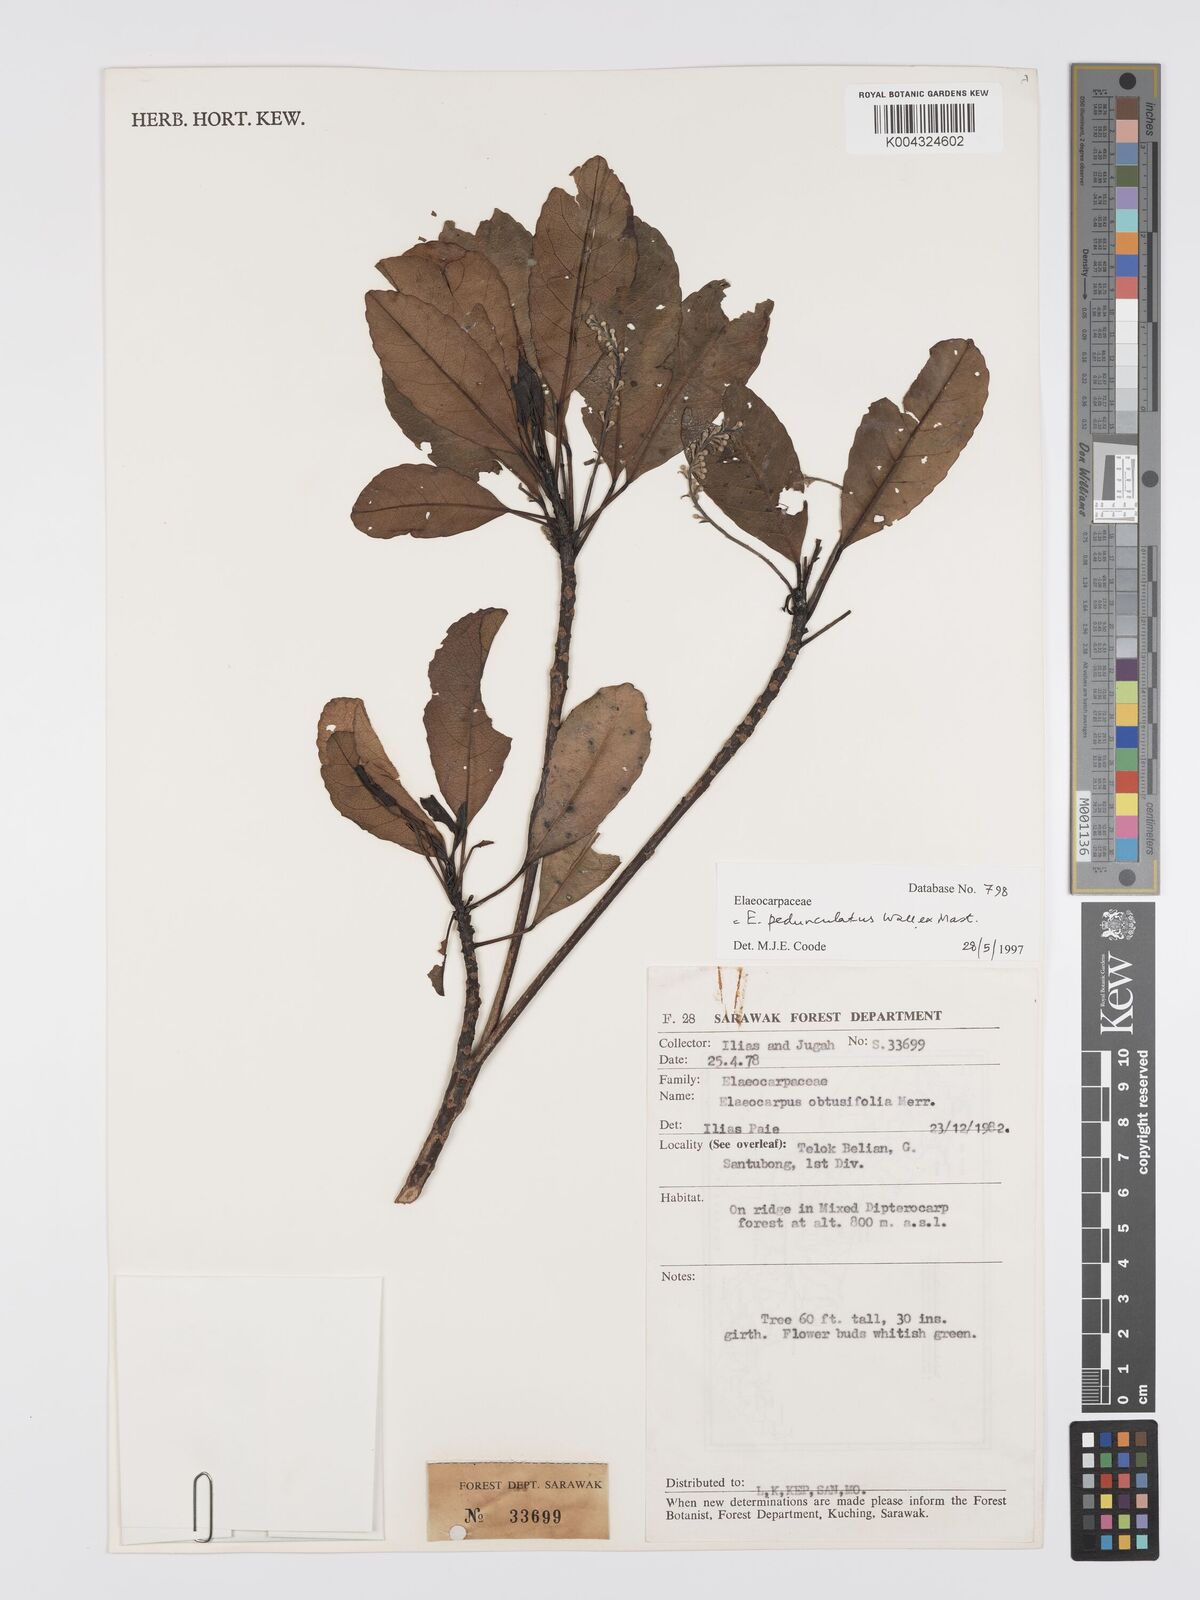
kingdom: Plantae
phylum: Tracheophyta
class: Magnoliopsida
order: Oxalidales
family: Elaeocarpaceae
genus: Elaeocarpus
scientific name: Elaeocarpus pedunculatus
